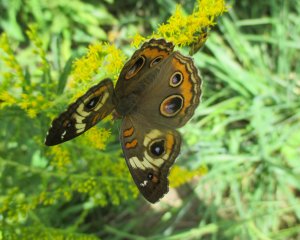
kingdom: Animalia
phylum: Arthropoda
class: Insecta
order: Lepidoptera
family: Nymphalidae
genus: Junonia
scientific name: Junonia coenia
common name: Common Buckeye
